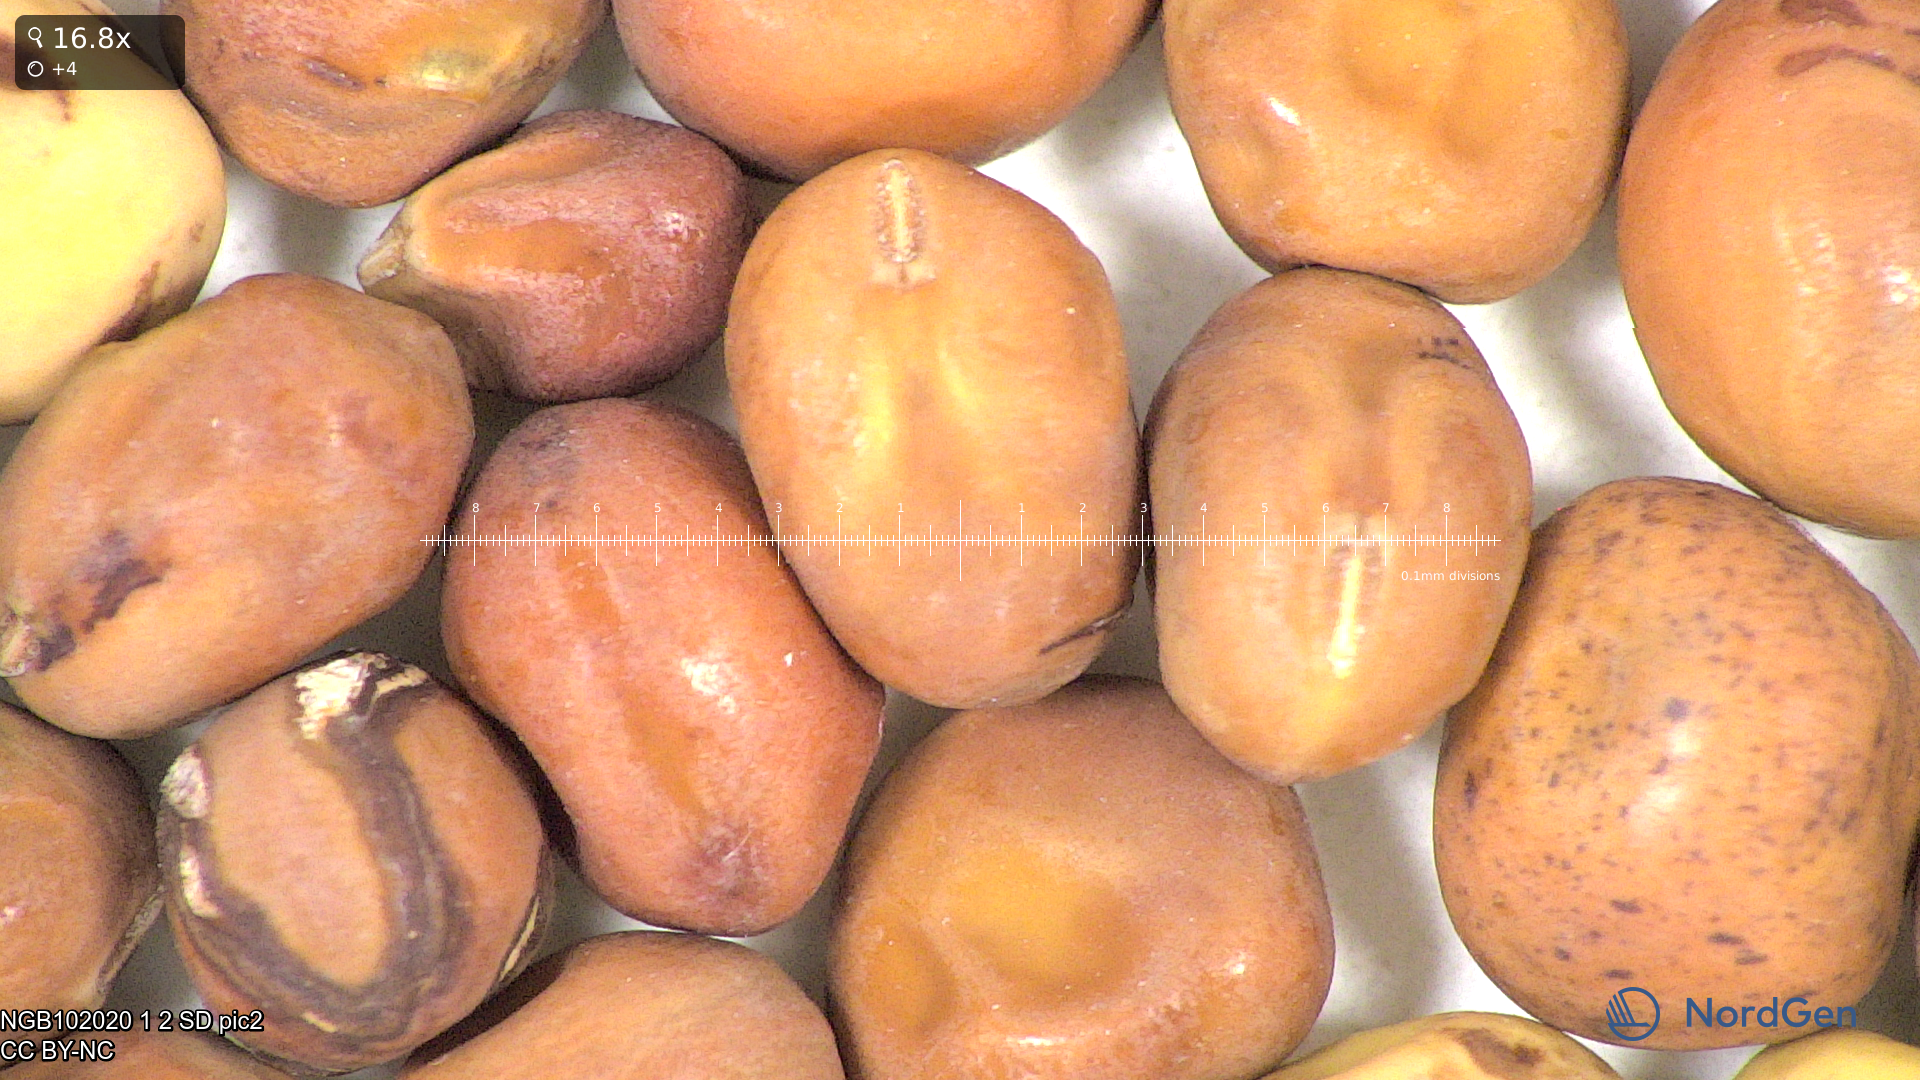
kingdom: Plantae
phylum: Tracheophyta
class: Magnoliopsida
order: Fabales
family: Fabaceae
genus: Lathyrus
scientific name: Lathyrus oleraceus
